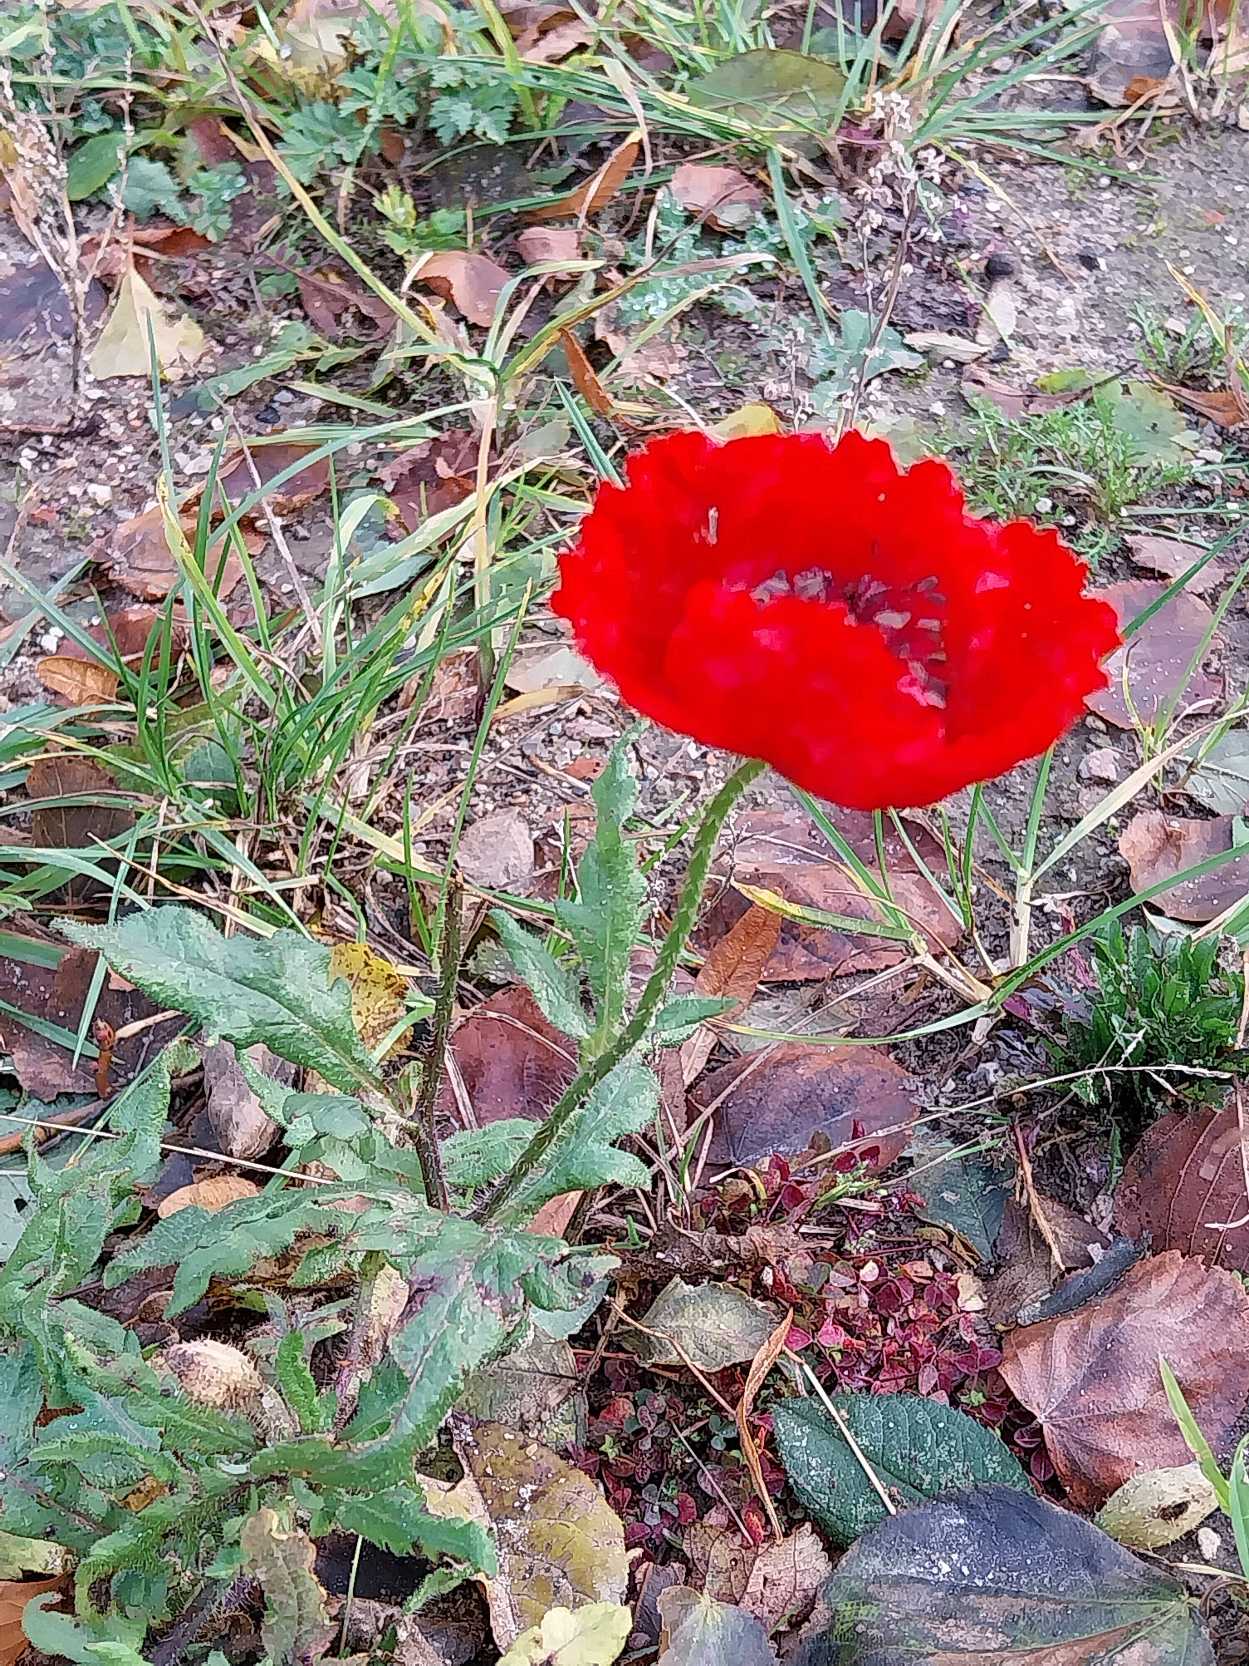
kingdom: Plantae
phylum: Tracheophyta
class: Magnoliopsida
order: Ranunculales
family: Papaveraceae
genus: Papaver
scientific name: Papaver rhoeas
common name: Korn-valmue
